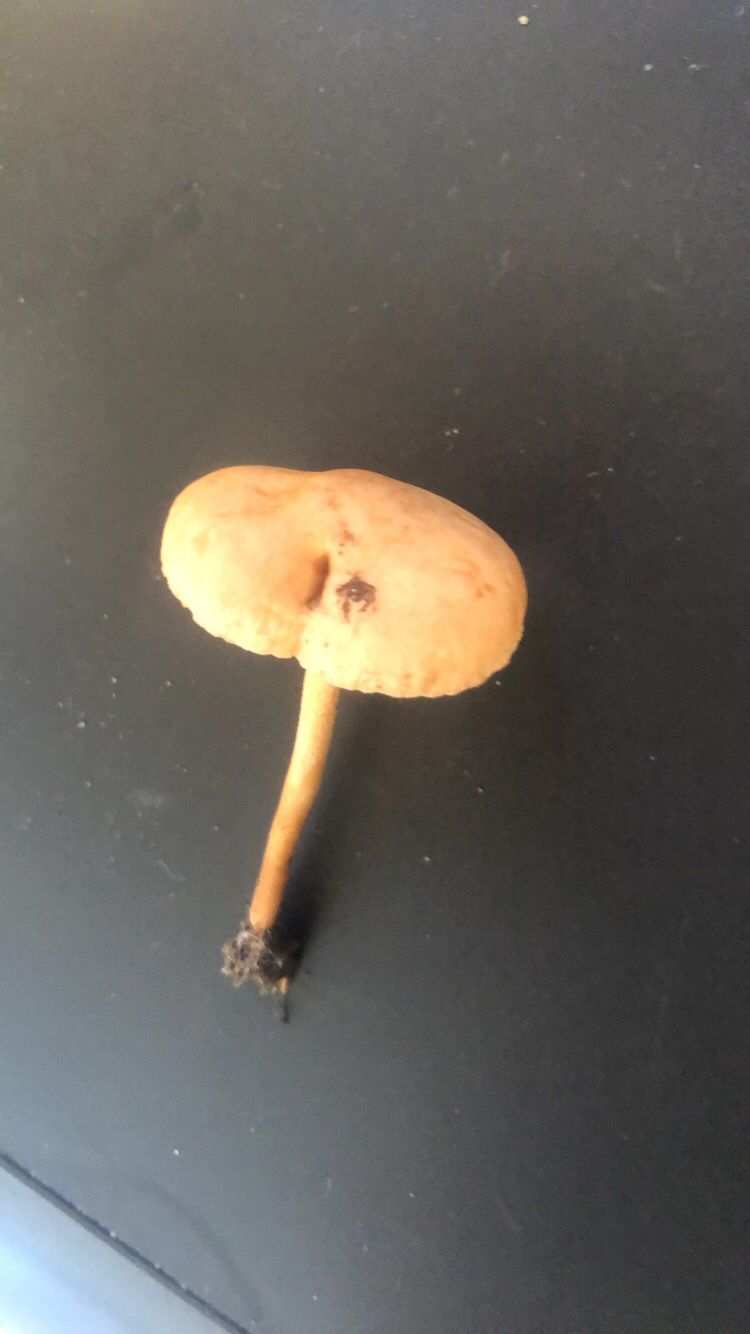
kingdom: Fungi
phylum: Basidiomycota
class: Agaricomycetes
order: Agaricales
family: Marasmiaceae
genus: Marasmius
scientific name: Marasmius oreades
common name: elledans-bruskhat
